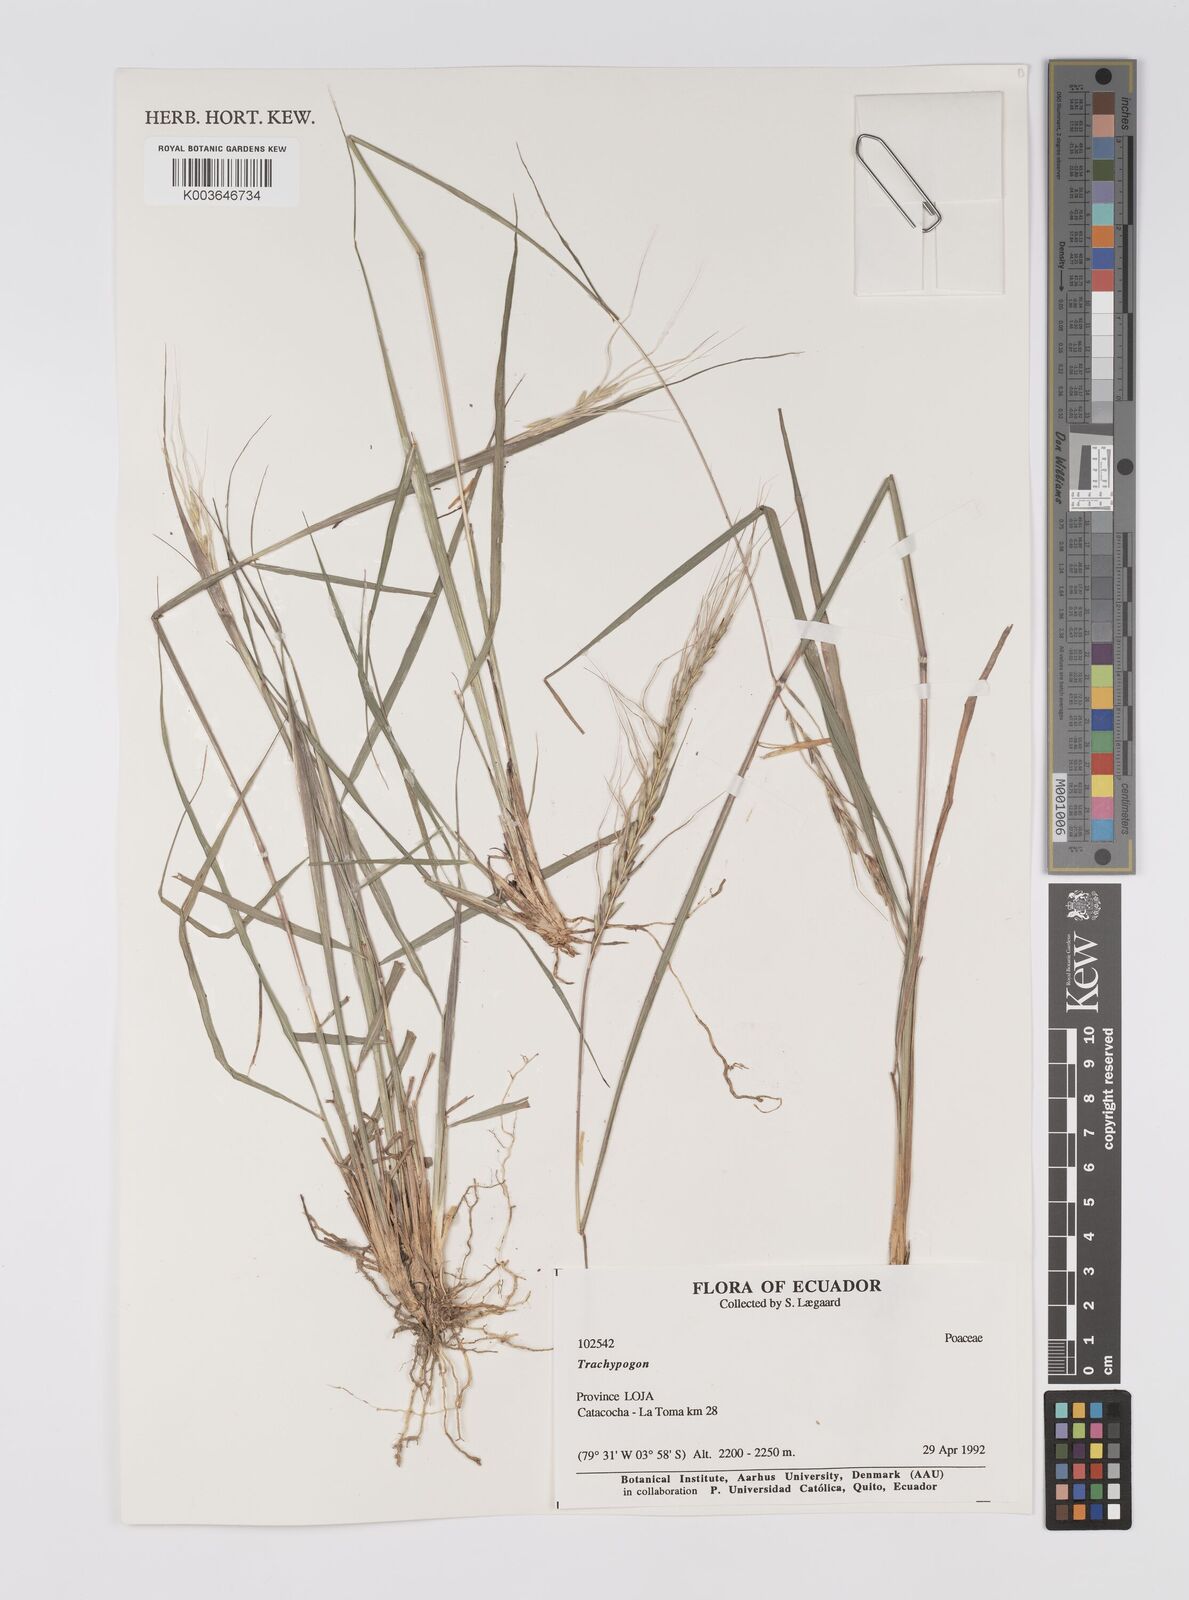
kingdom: Plantae
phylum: Tracheophyta
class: Liliopsida
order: Poales
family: Poaceae
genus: Trachypogon
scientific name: Trachypogon spicatus
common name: Crinkle-awn
